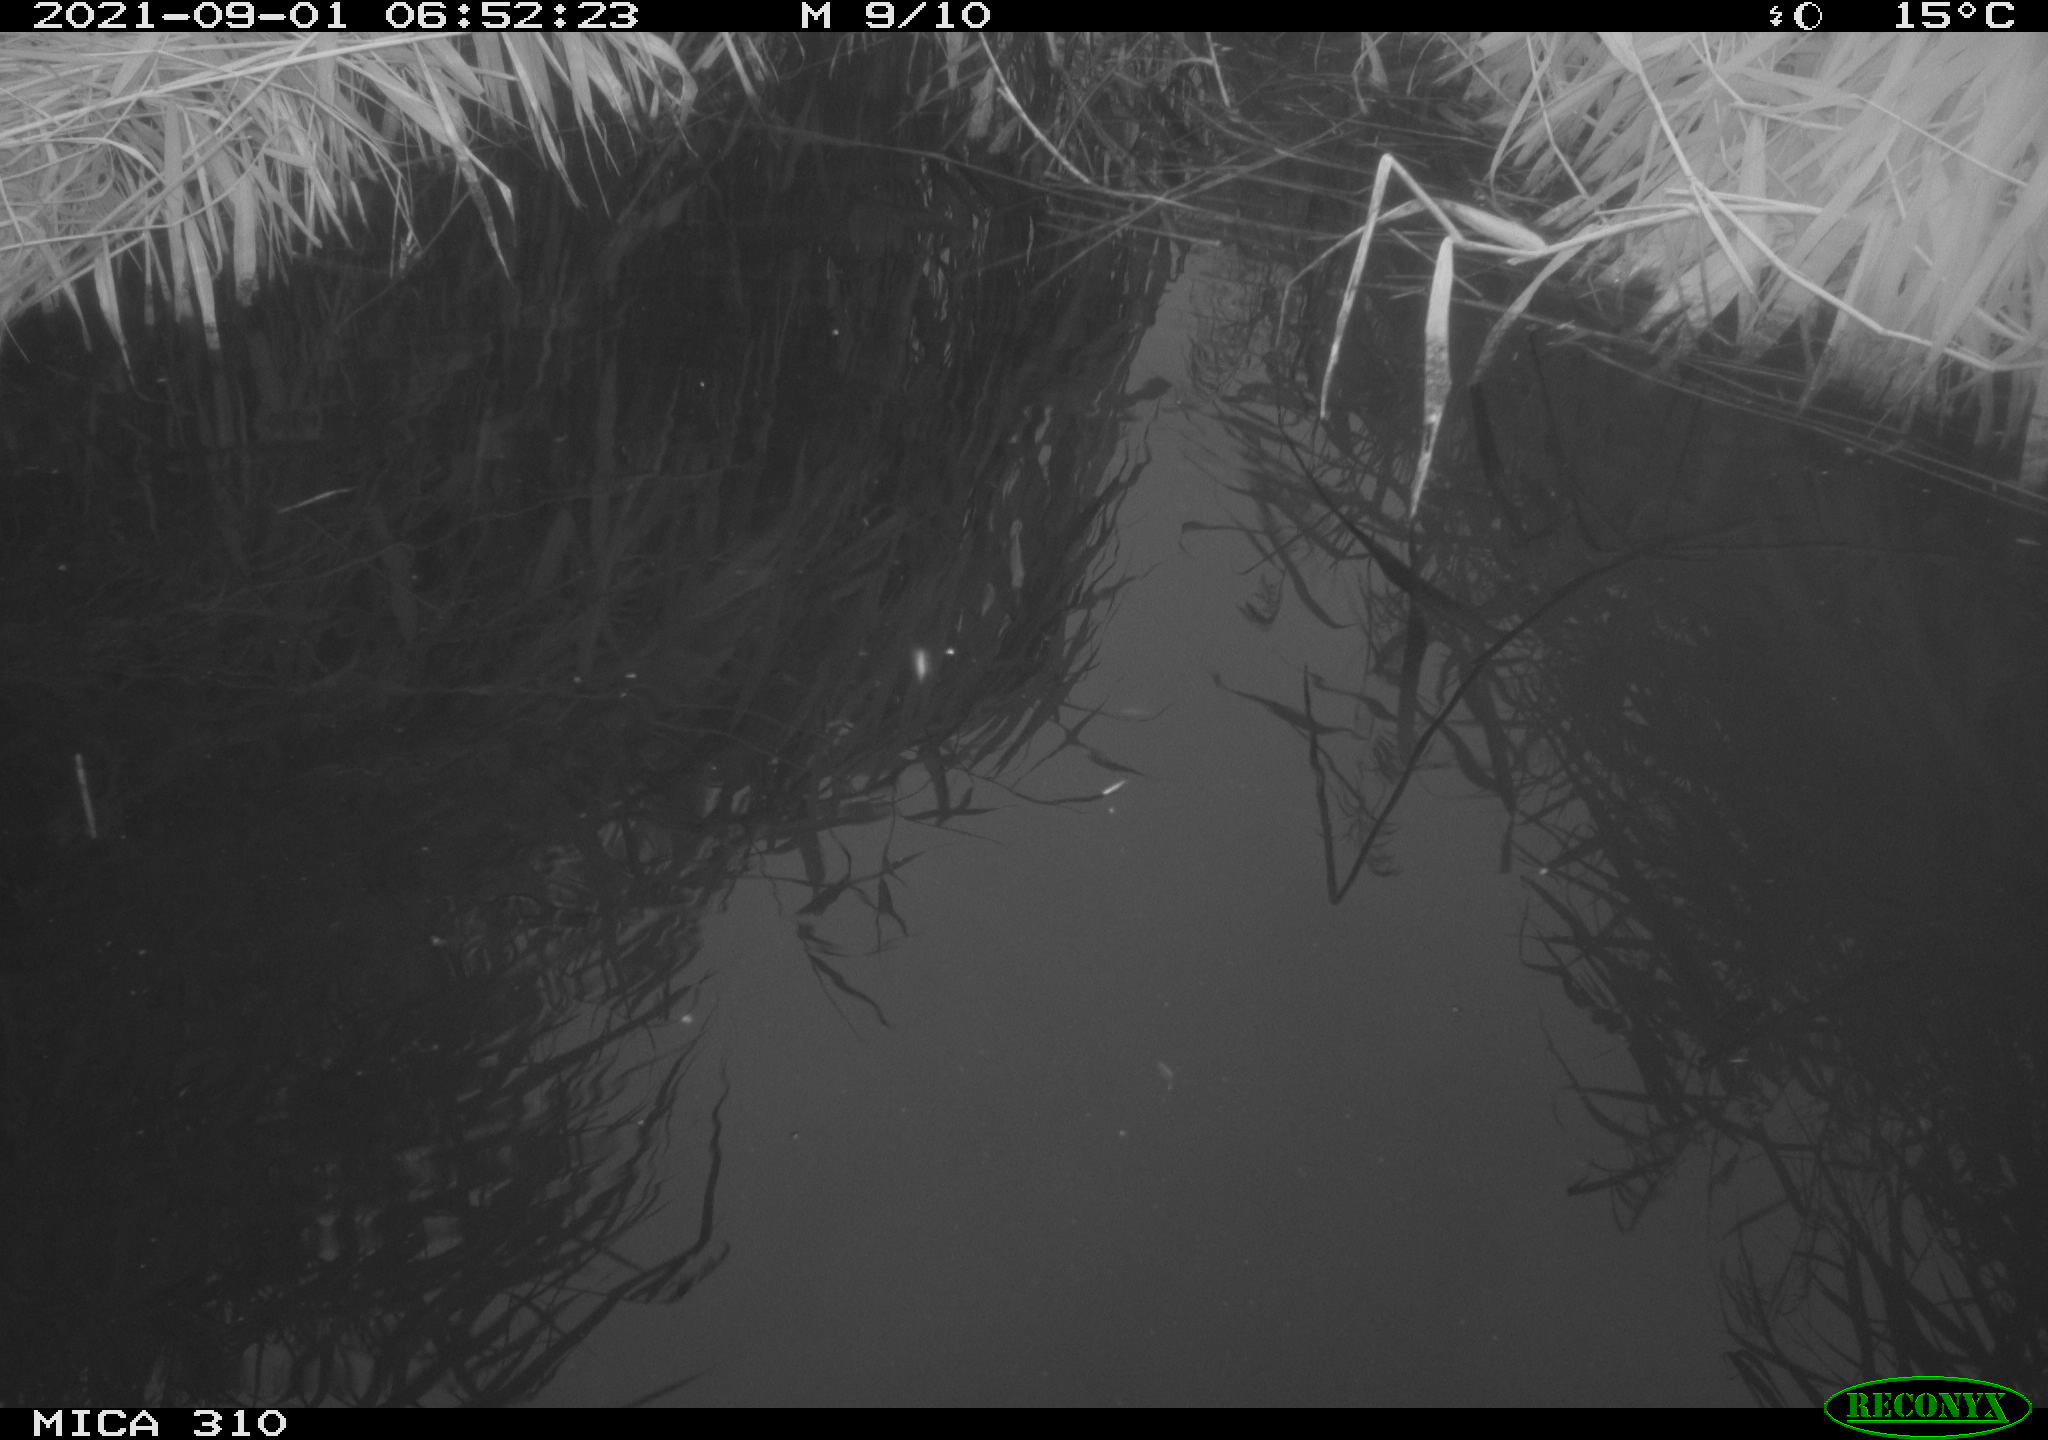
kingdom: Animalia
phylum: Chordata
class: Aves
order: Gruiformes
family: Rallidae
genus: Gallinula
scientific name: Gallinula chloropus
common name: Common moorhen
